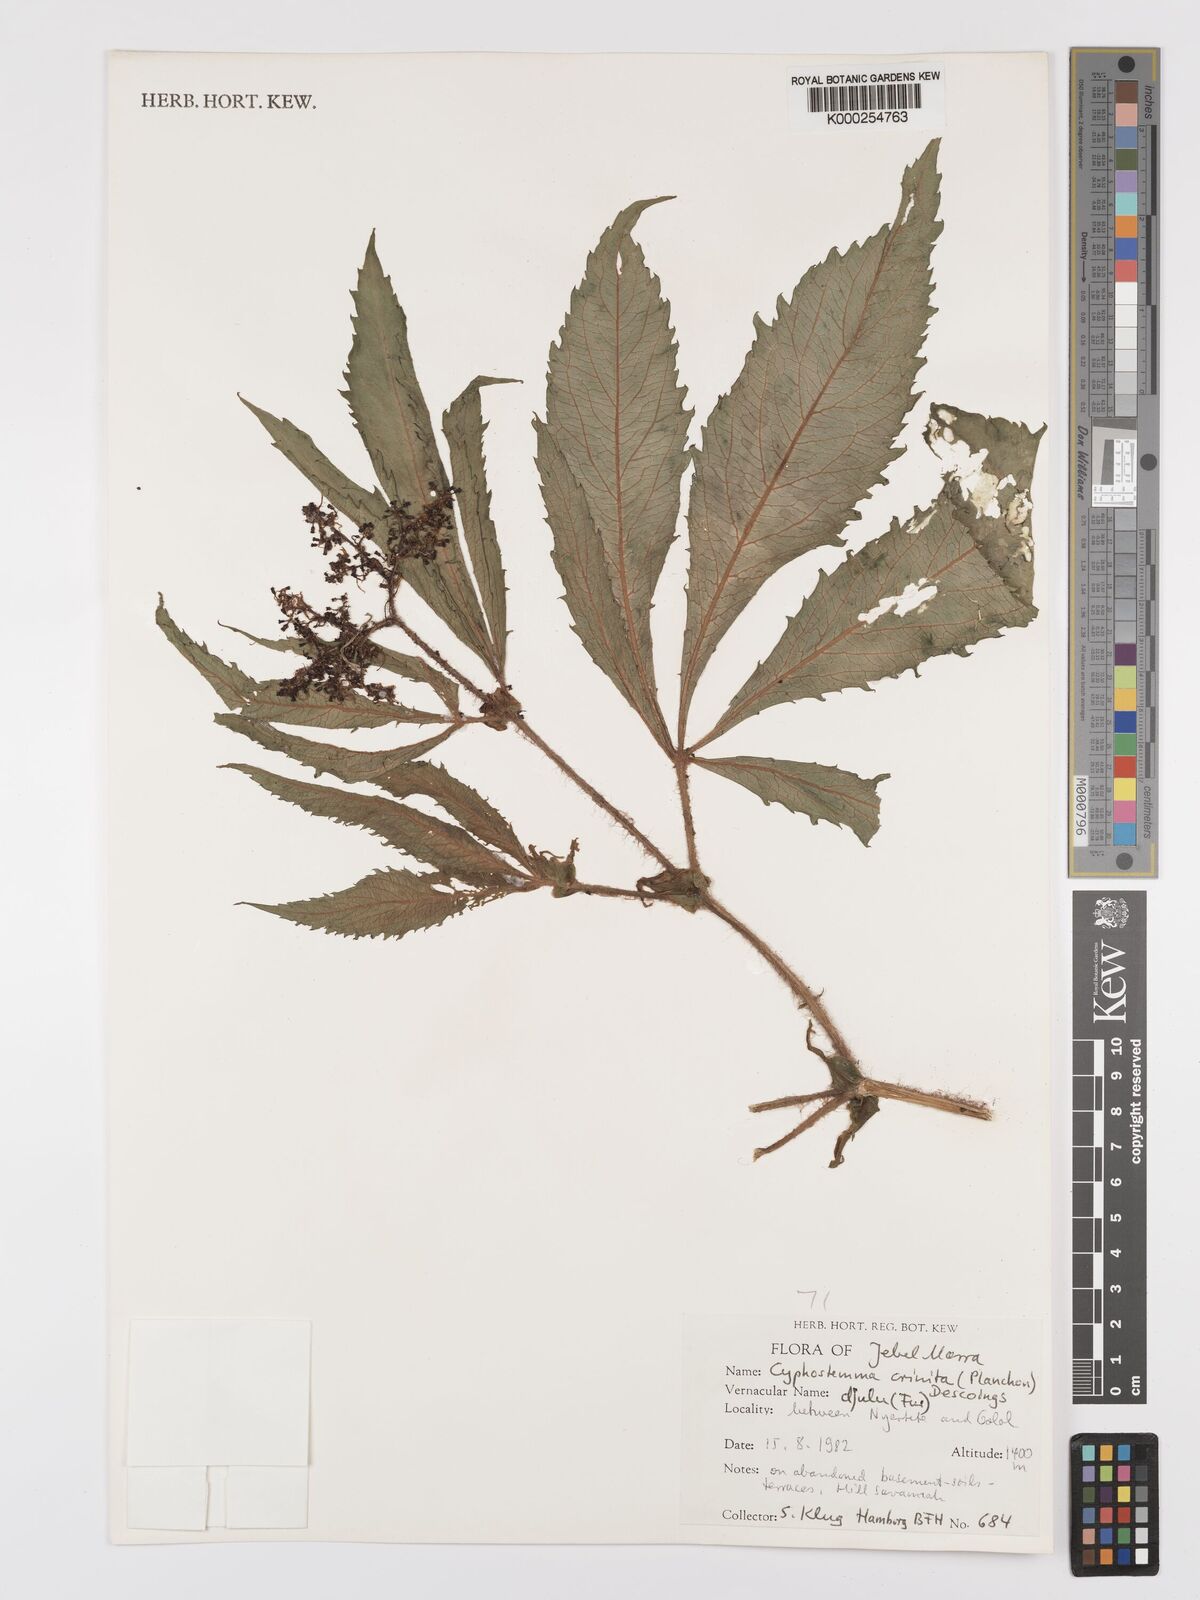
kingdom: Plantae
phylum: Tracheophyta
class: Magnoliopsida
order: Vitales
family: Vitaceae
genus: Cyphostemma
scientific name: Cyphostemma crinitum
